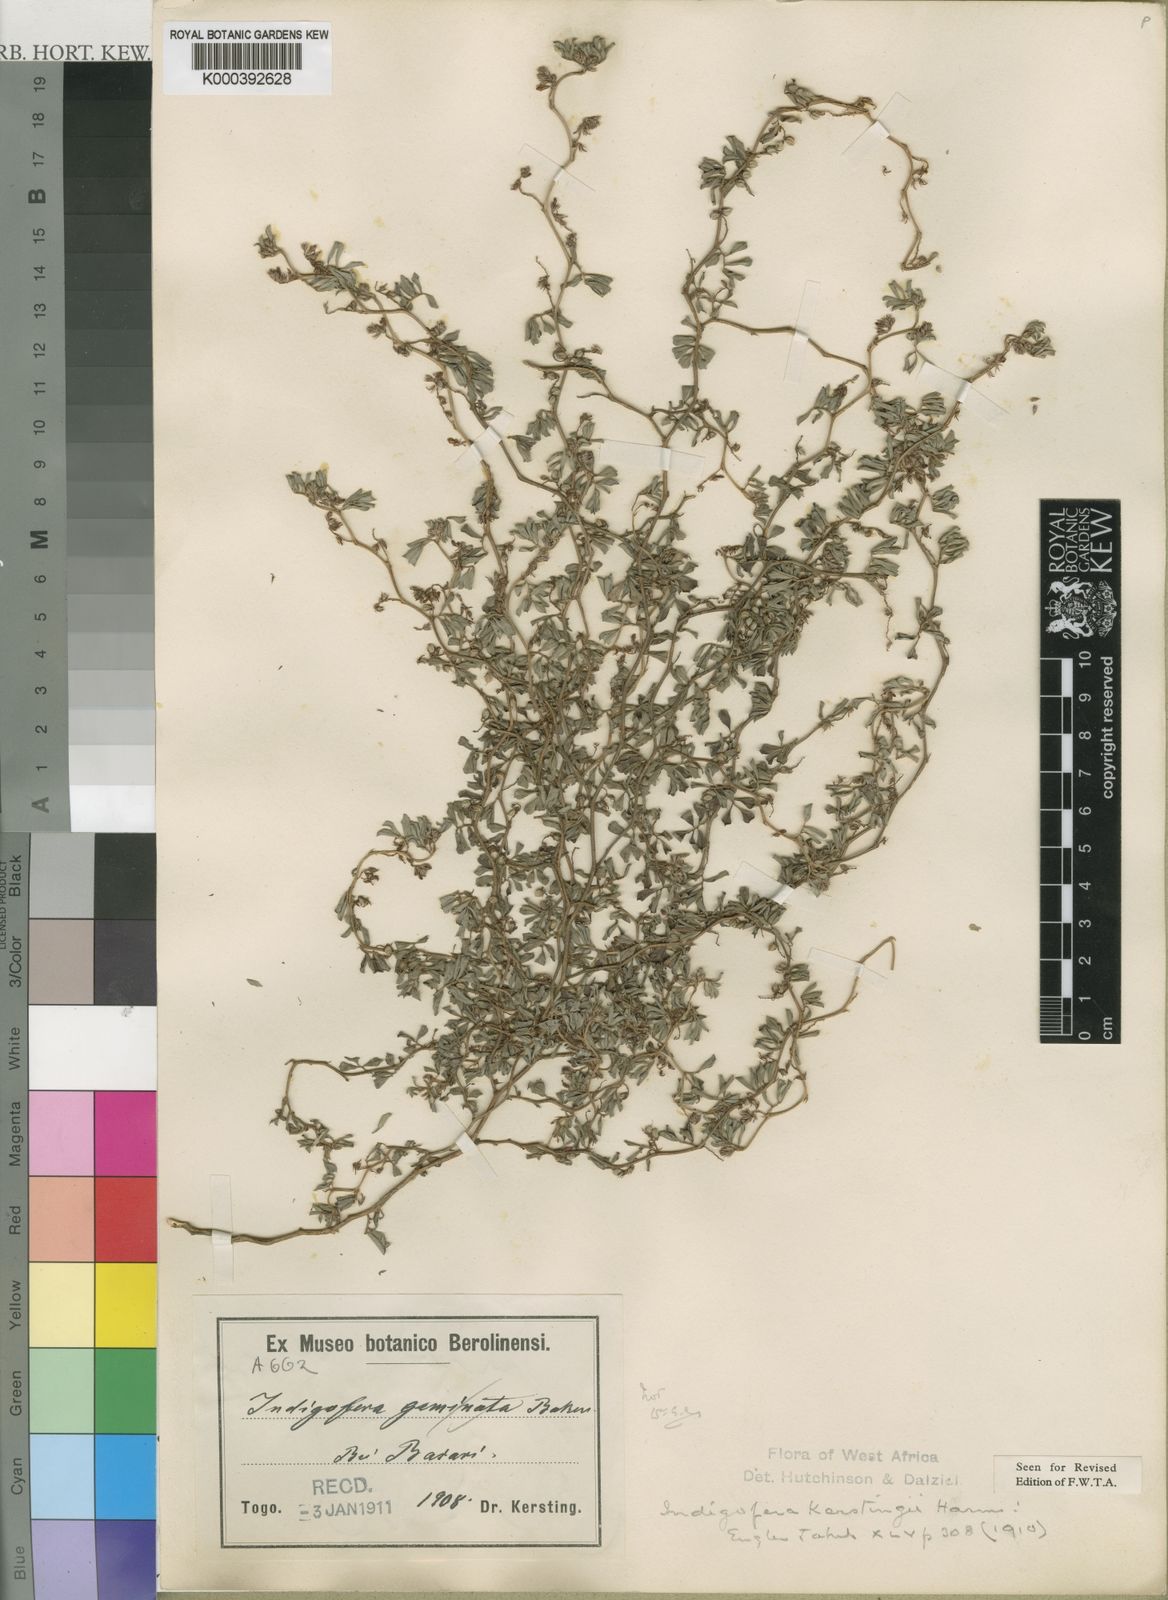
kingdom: Plantae
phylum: Tracheophyta
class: Magnoliopsida
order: Fabales
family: Fabaceae
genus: Indigofera
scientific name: Indigofera kerstingii
